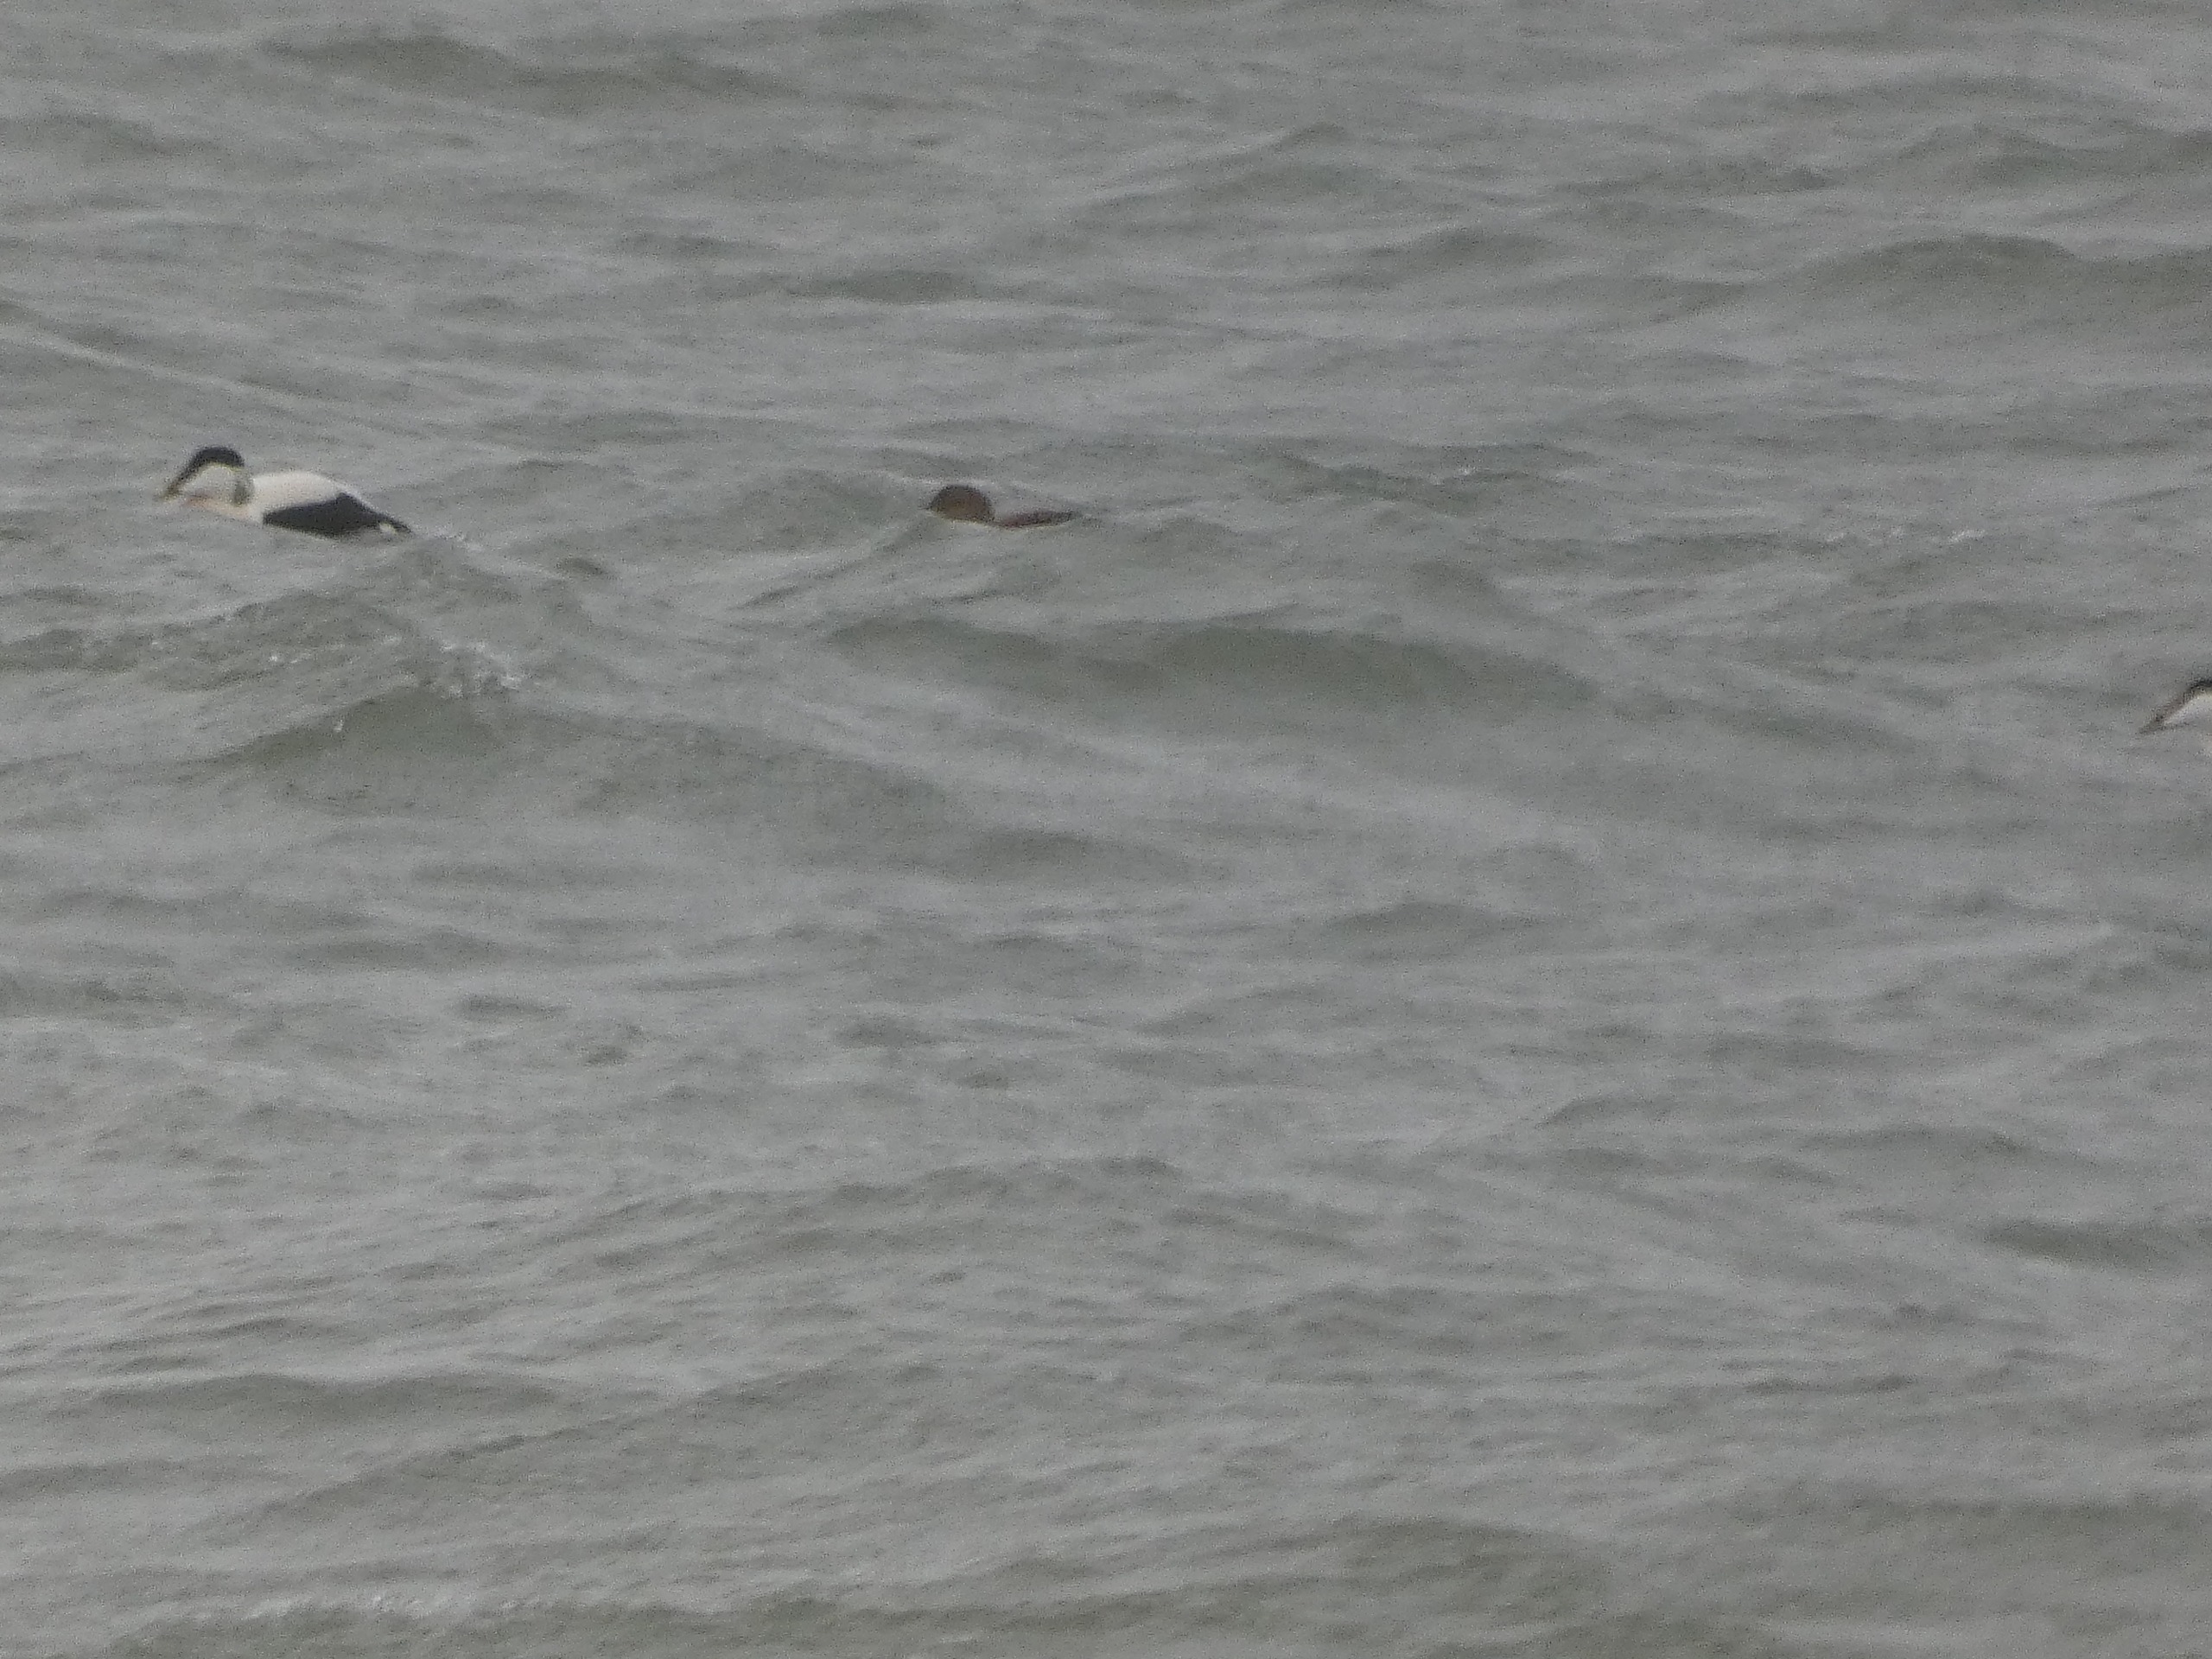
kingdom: Animalia
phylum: Chordata
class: Aves
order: Anseriformes
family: Anatidae
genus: Somateria
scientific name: Somateria mollissima
